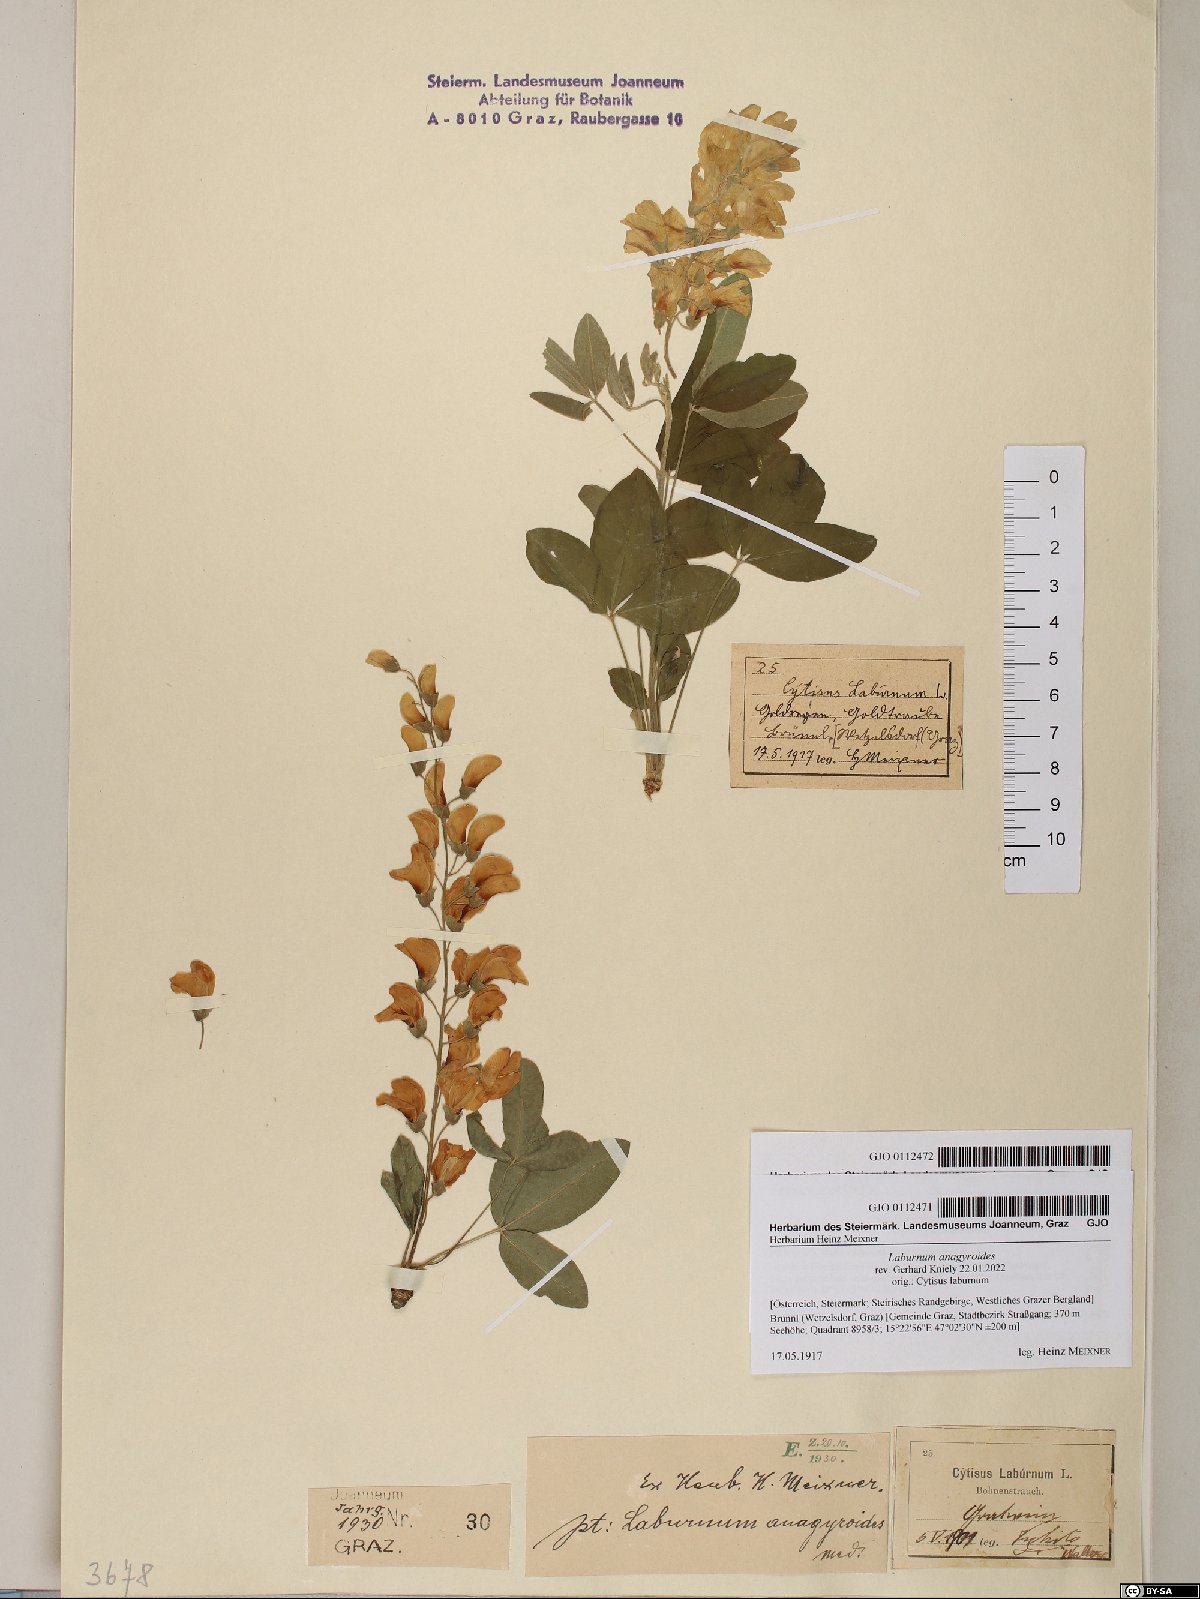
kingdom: Plantae
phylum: Tracheophyta
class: Magnoliopsida
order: Fabales
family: Fabaceae
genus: Laburnum
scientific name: Laburnum anagyroides
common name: Laburnum
